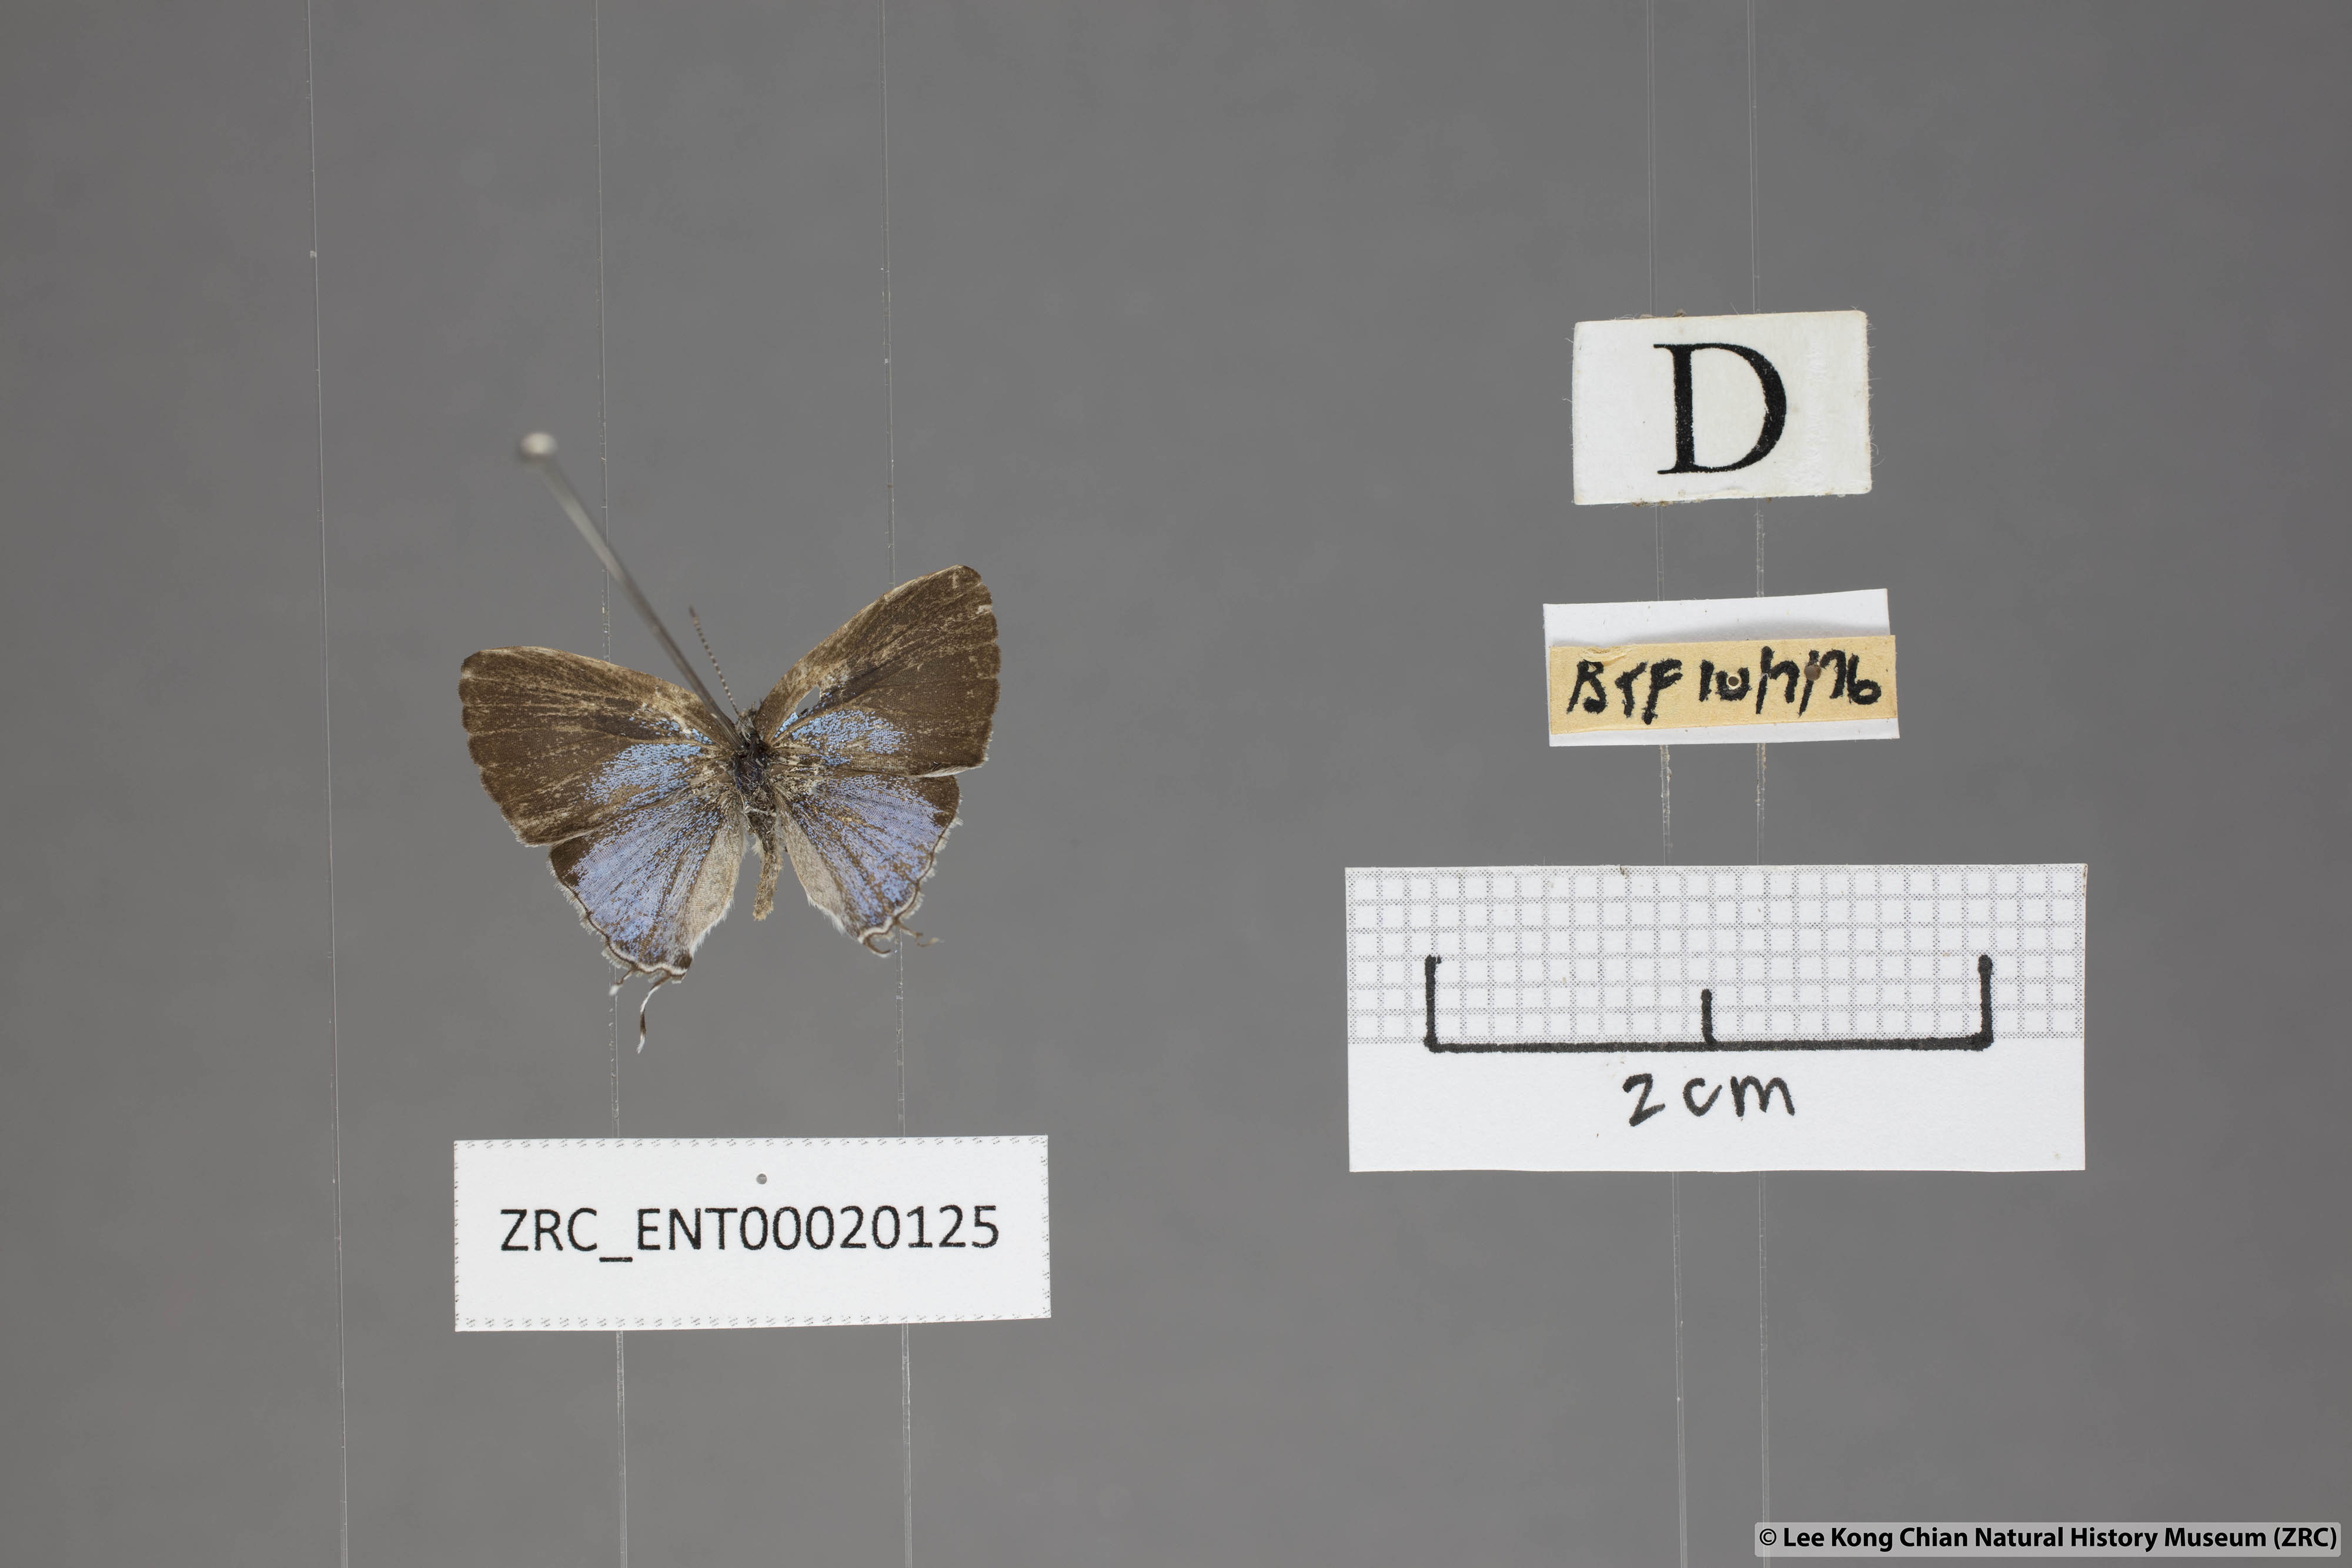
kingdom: Animalia
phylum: Arthropoda
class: Insecta
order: Lepidoptera
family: Lycaenidae
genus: Chliaria
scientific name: Chliaria othona
